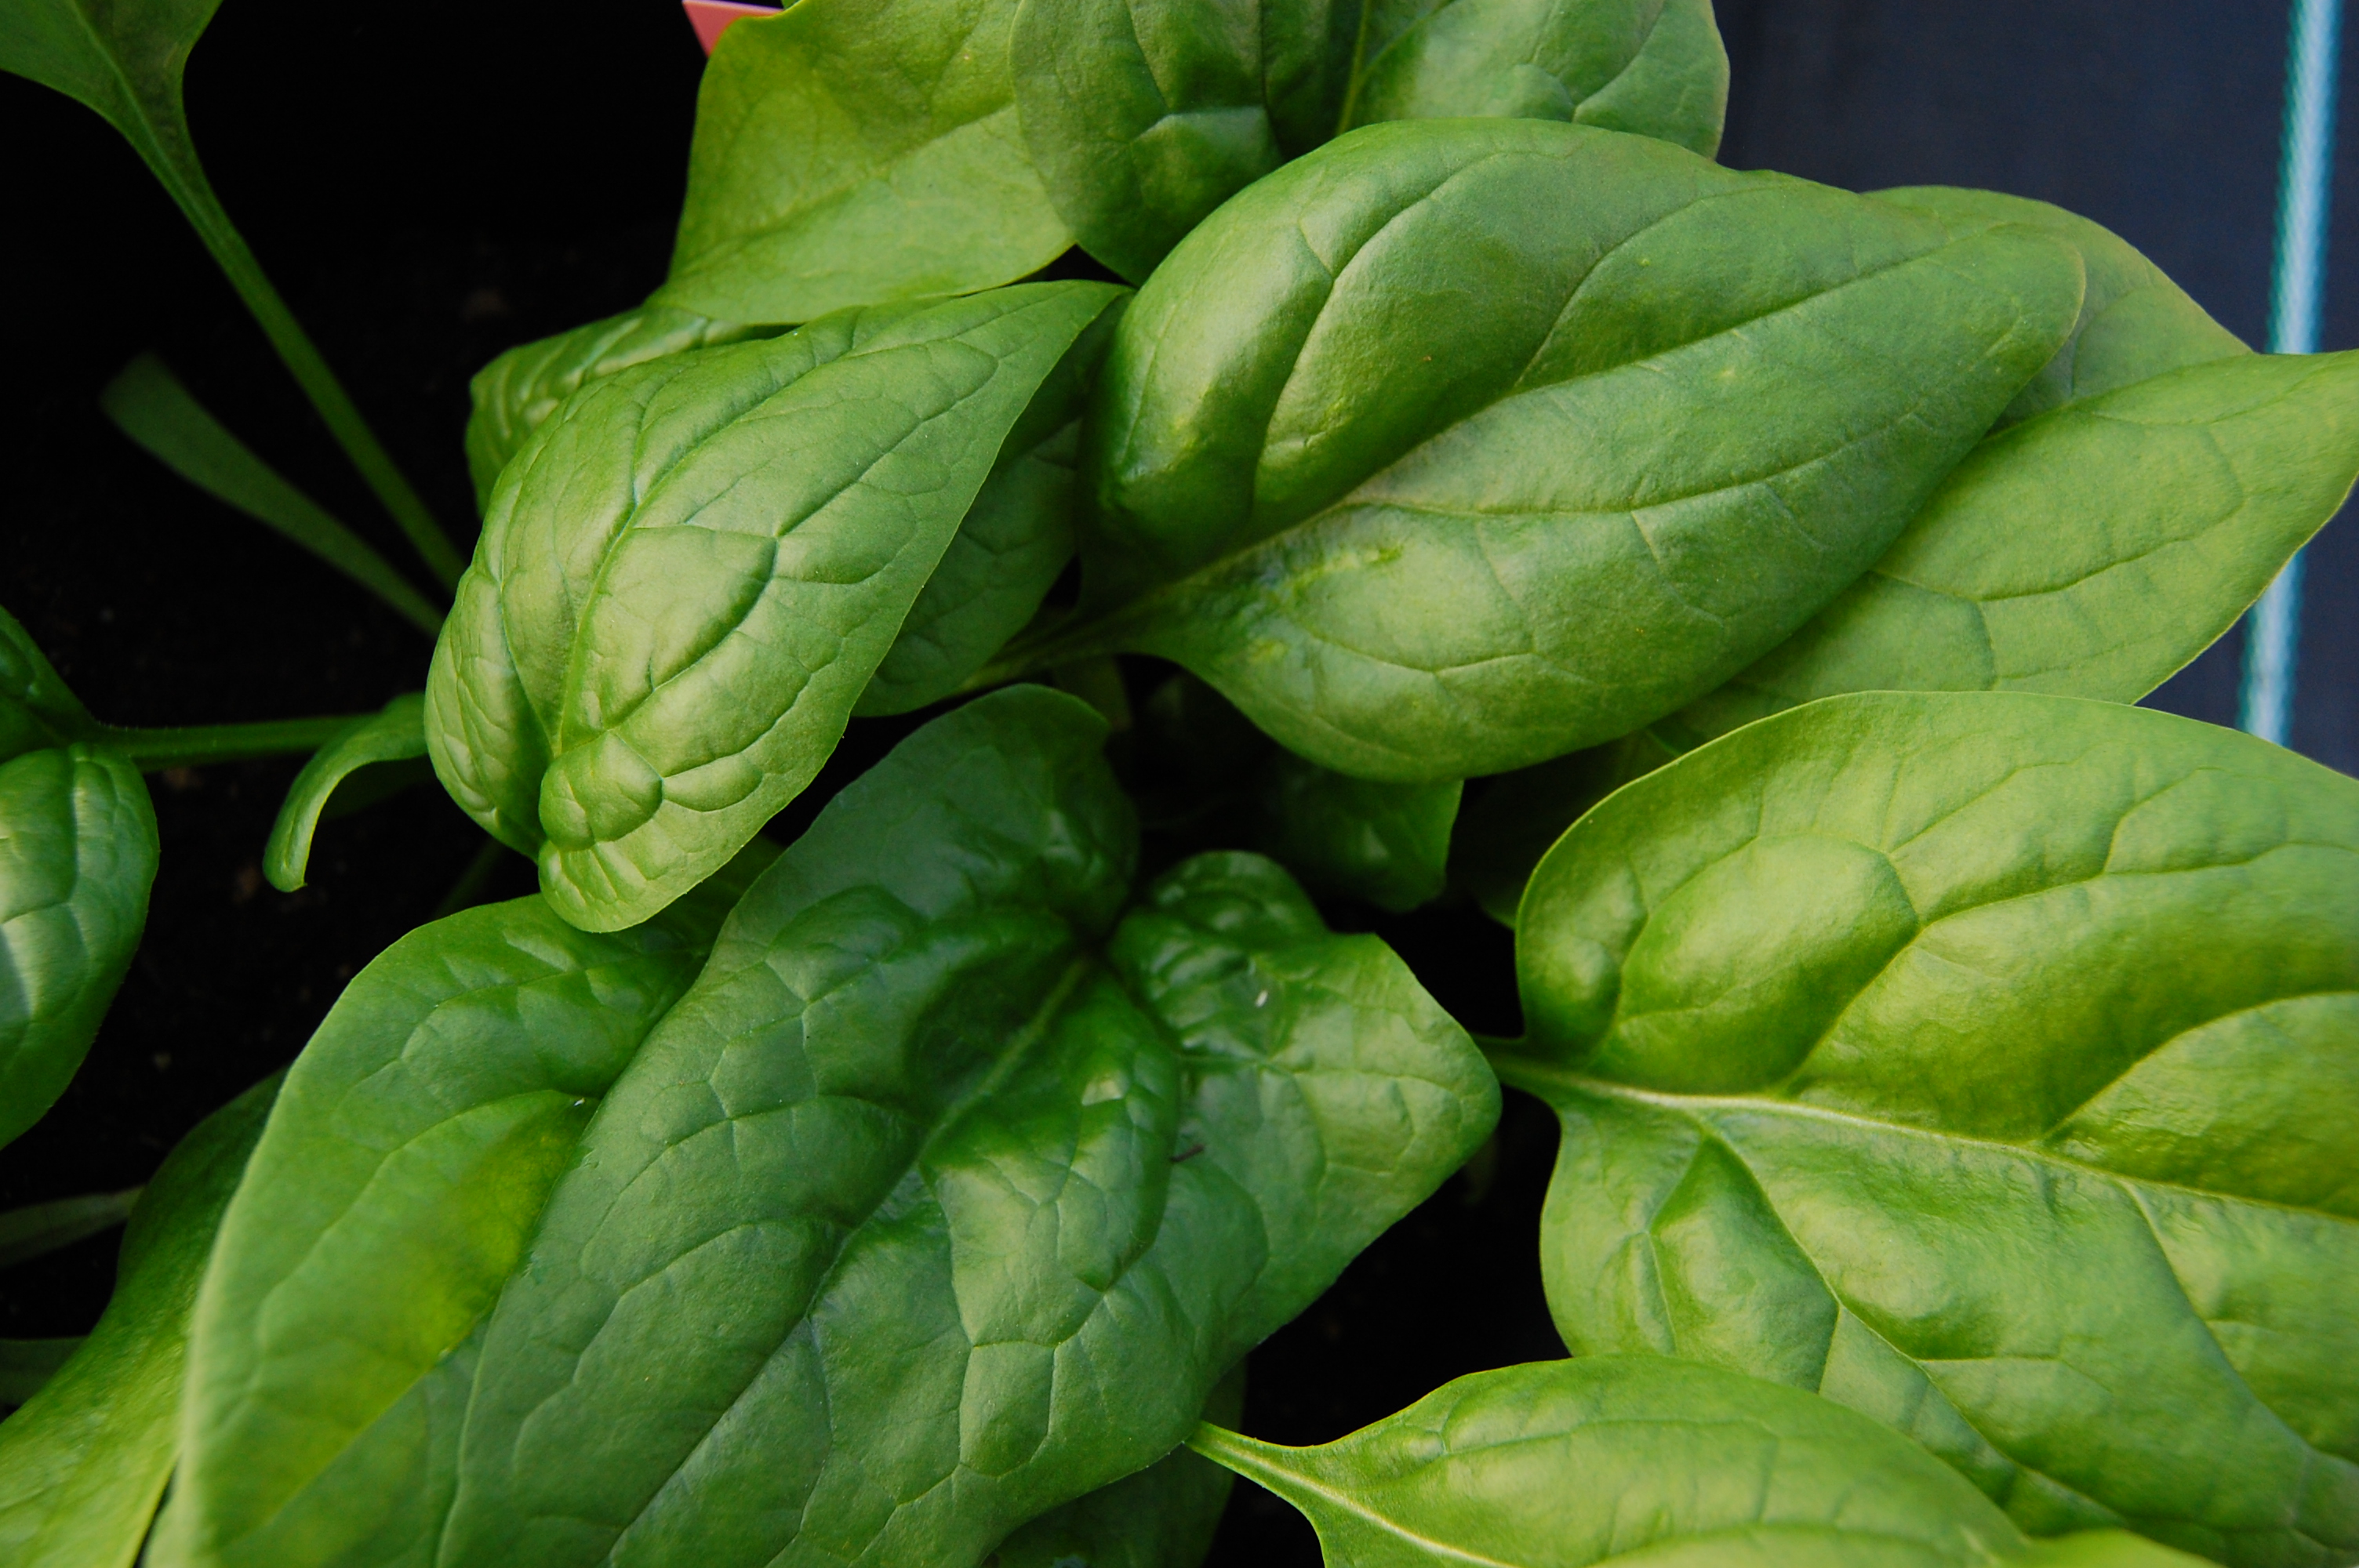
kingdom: Plantae
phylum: Tracheophyta
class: Magnoliopsida
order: Caryophyllales
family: Amaranthaceae
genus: Spinacia
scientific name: Spinacia oleracea
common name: Spinach
